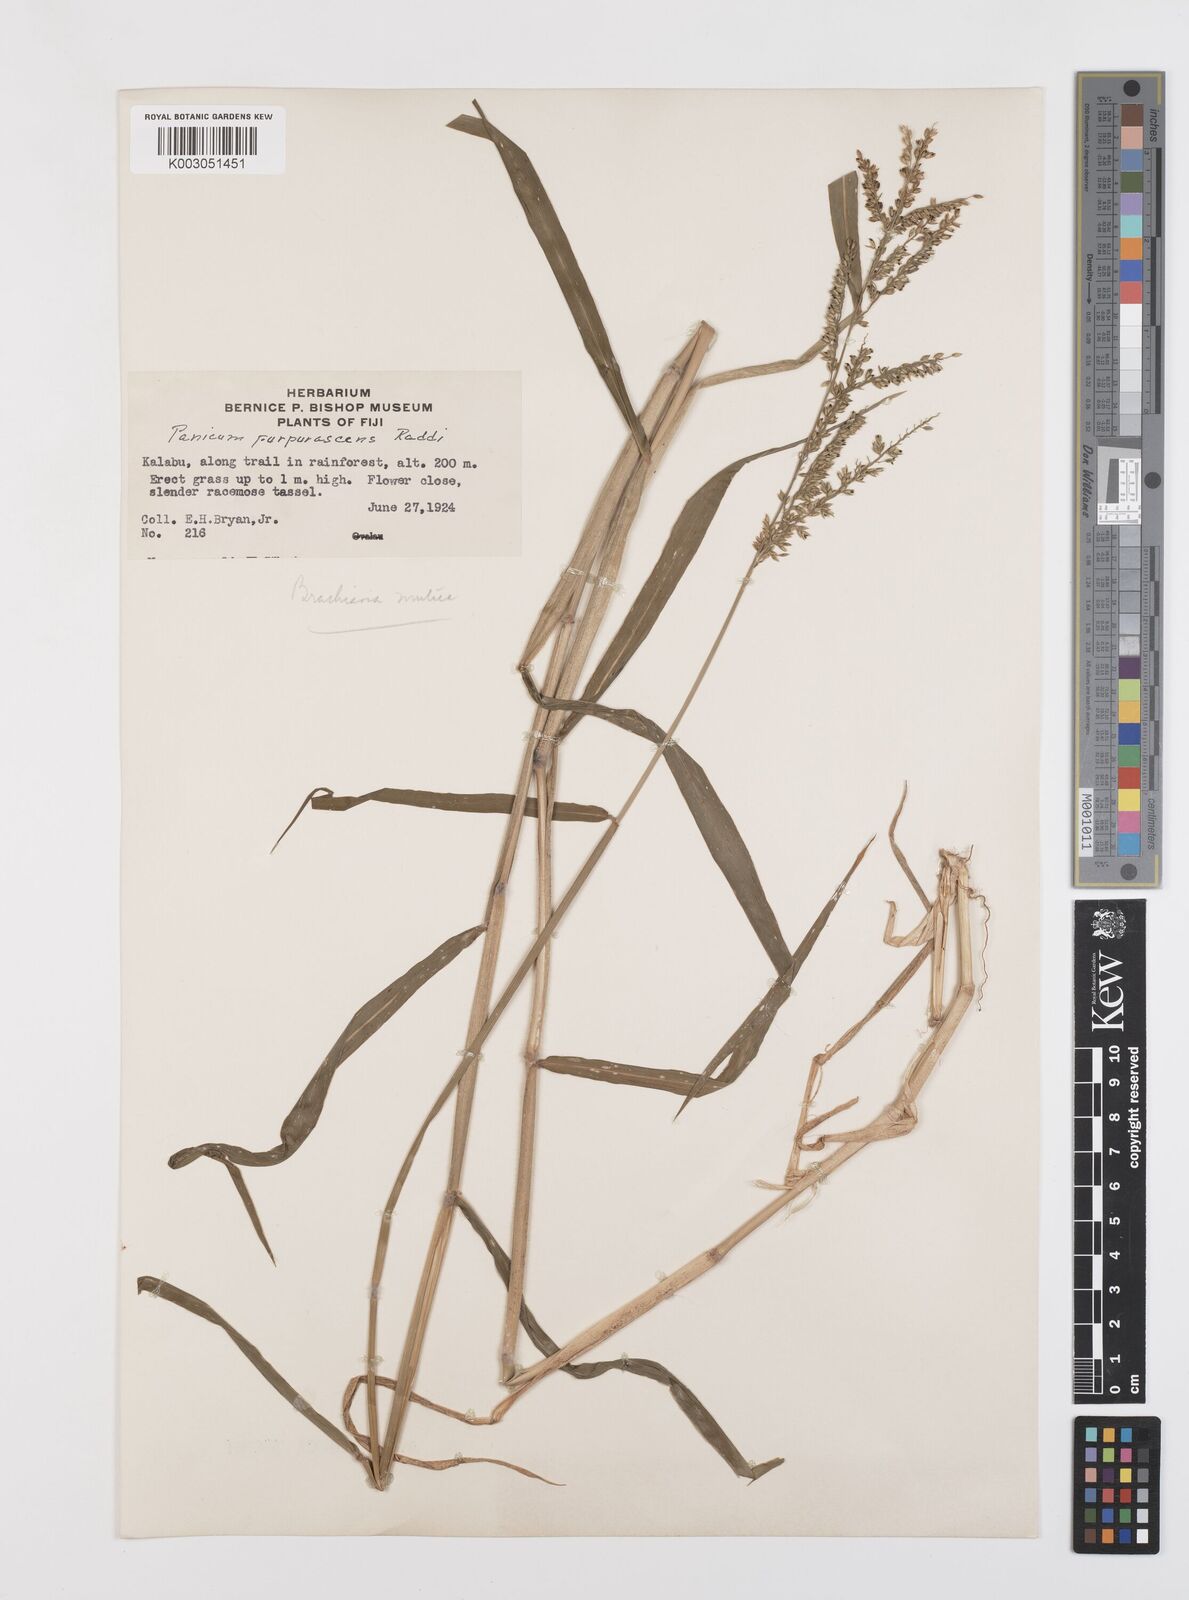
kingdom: Plantae
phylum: Tracheophyta
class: Liliopsida
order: Poales
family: Poaceae
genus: Urochloa
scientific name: Urochloa mutica
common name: Para grass
